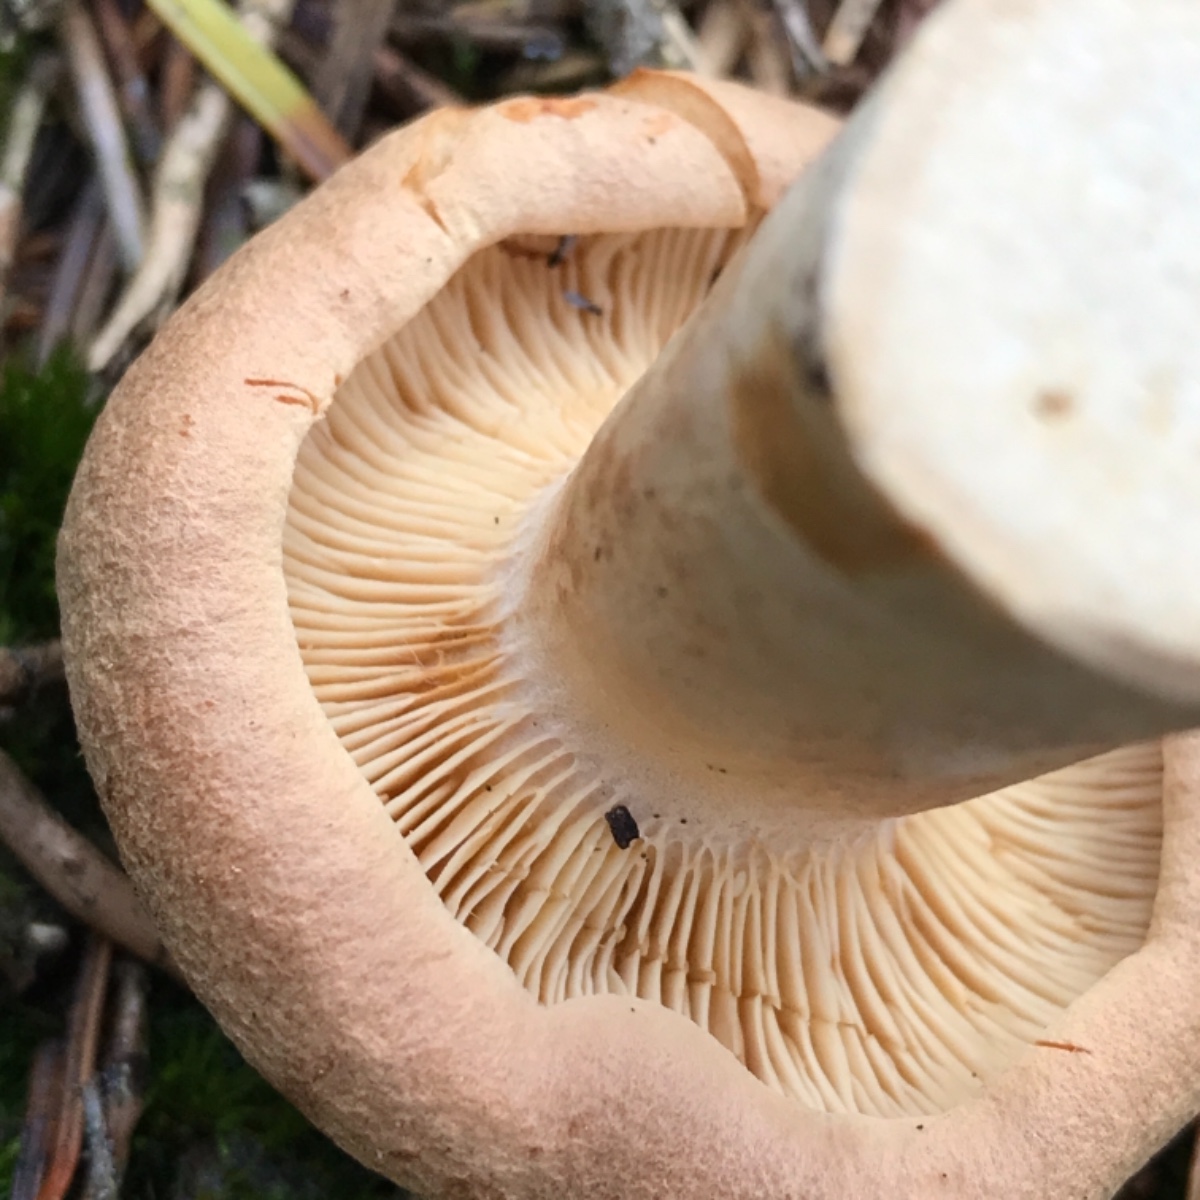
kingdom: Fungi
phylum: Basidiomycota
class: Agaricomycetes
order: Russulales
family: Russulaceae
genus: Lactarius
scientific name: Lactarius helvus
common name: mose-mælkehat
